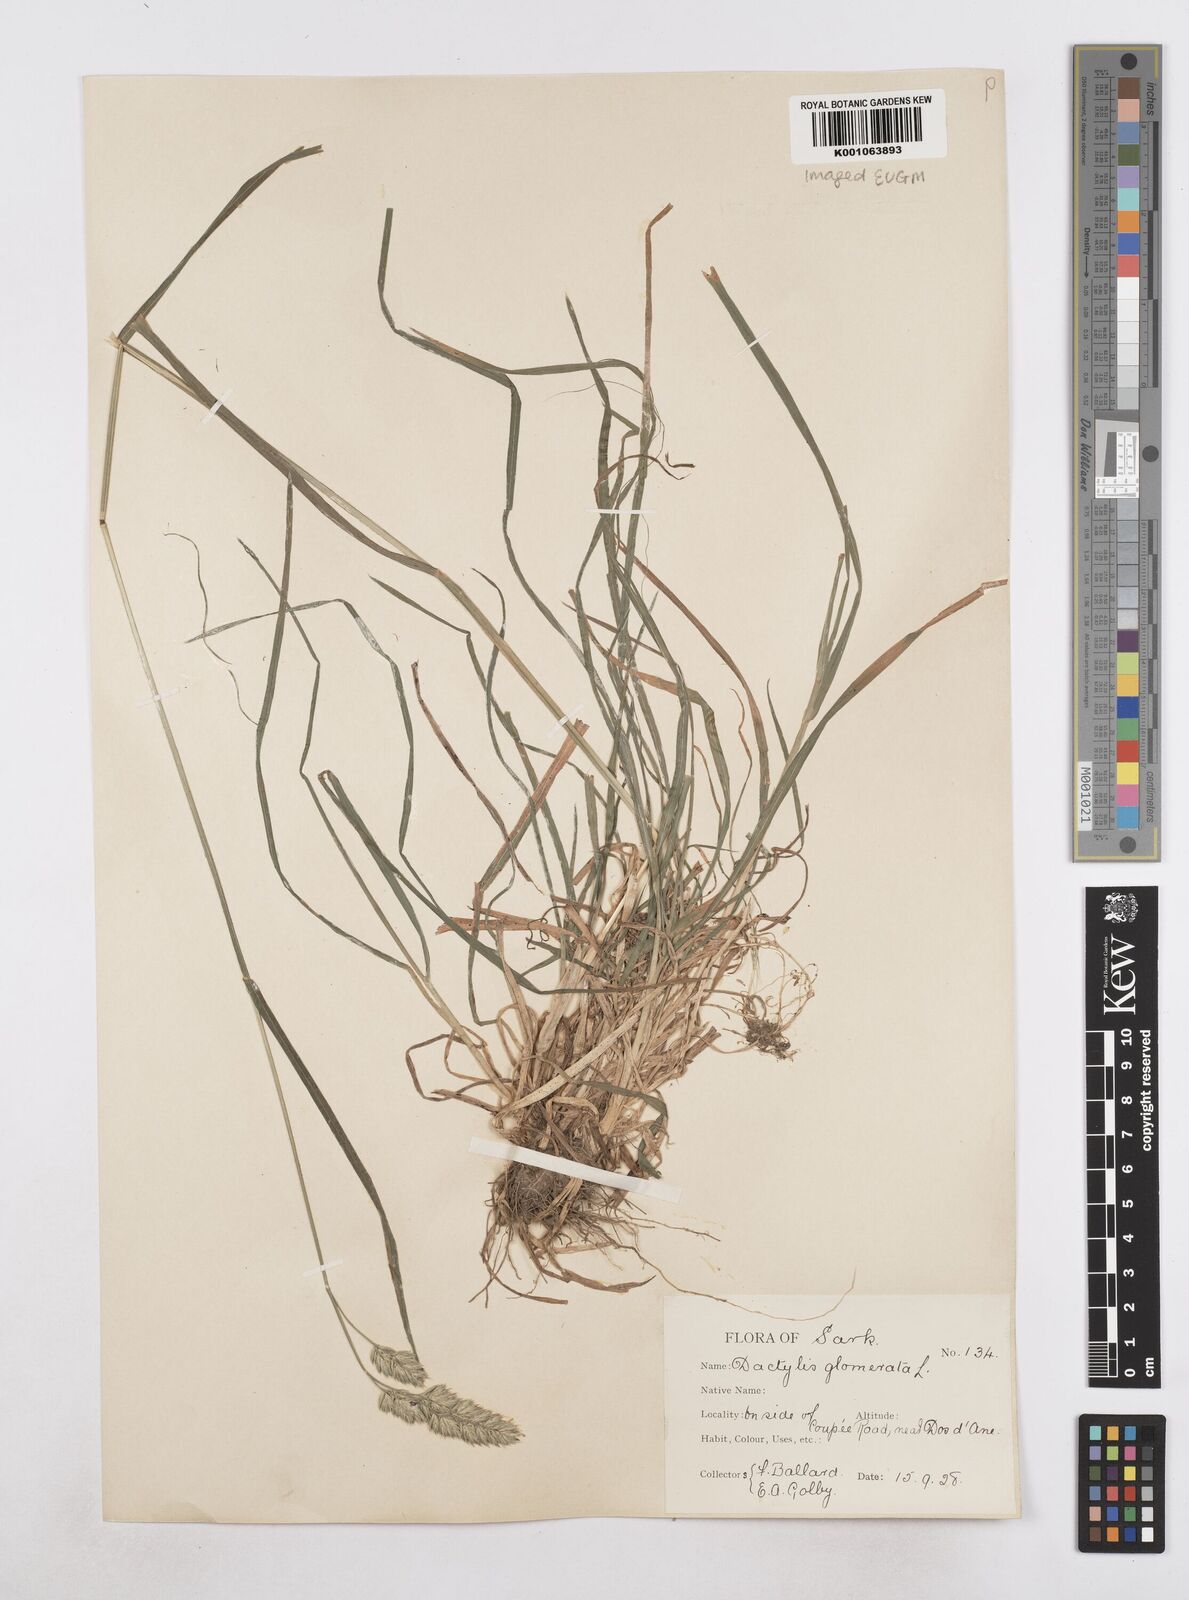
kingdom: Plantae
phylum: Tracheophyta
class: Liliopsida
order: Poales
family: Poaceae
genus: Dactylis
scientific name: Dactylis glomerata
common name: Orchardgrass
